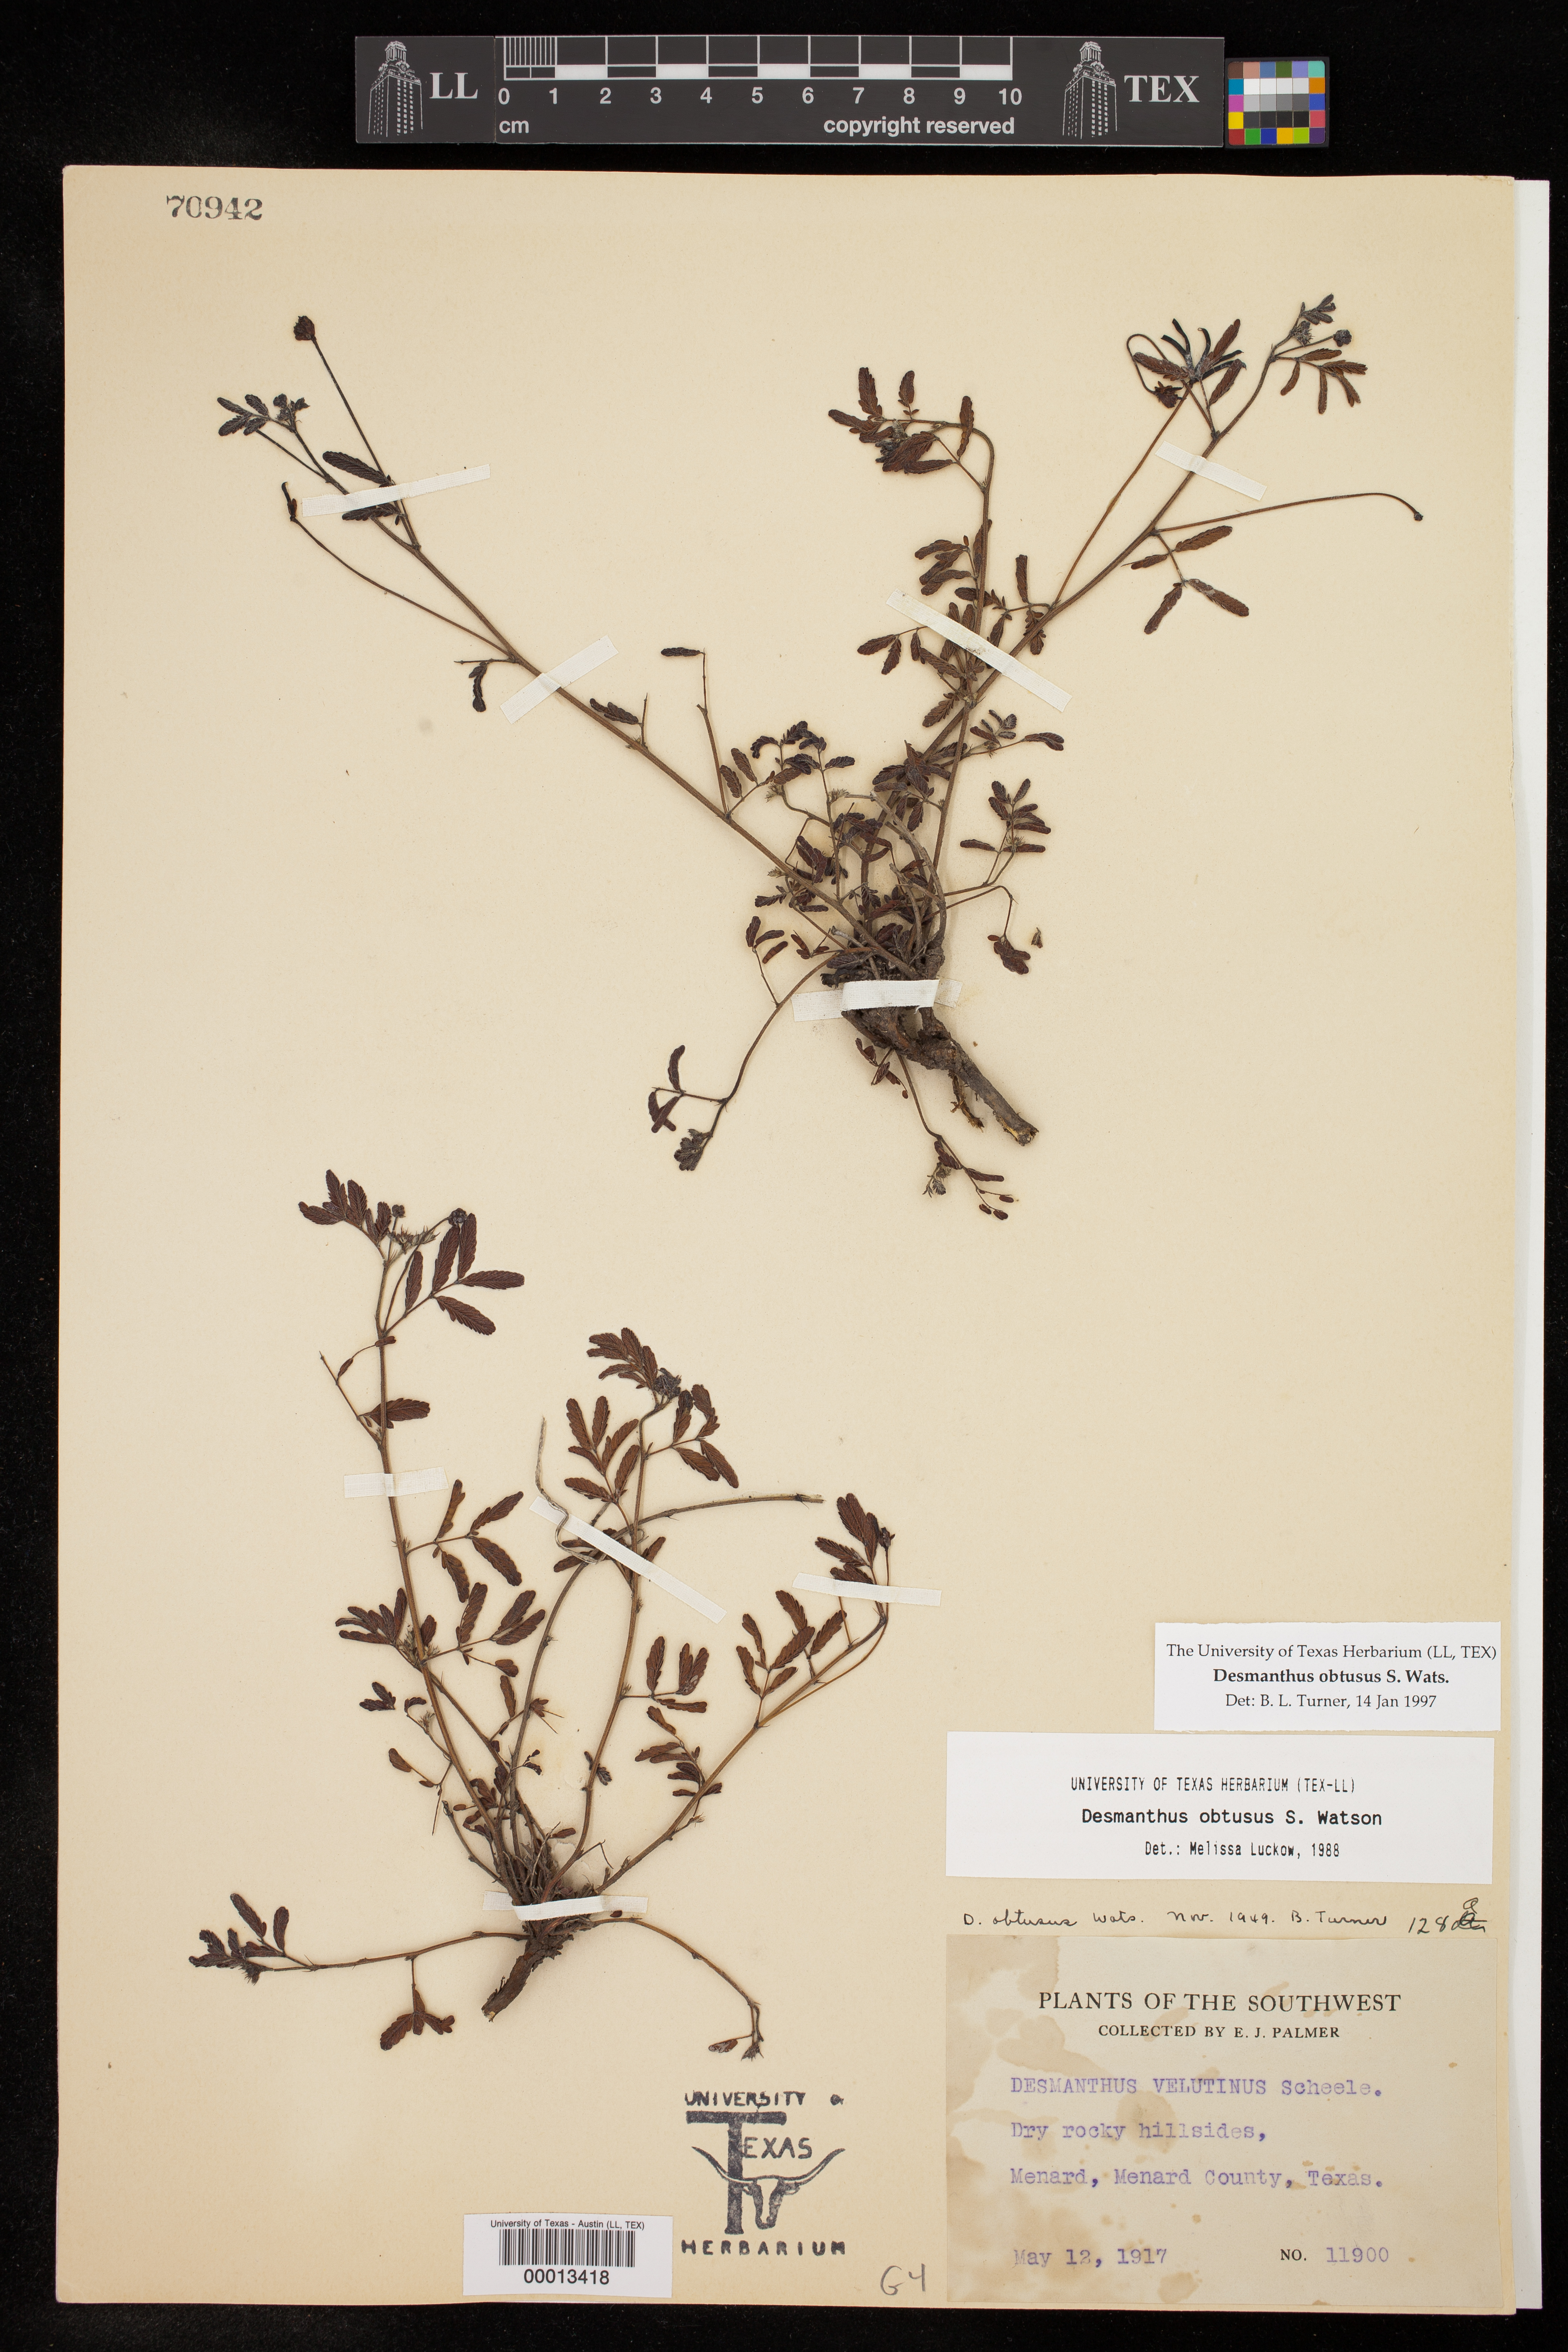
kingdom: Plantae
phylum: Tracheophyta
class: Magnoliopsida
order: Fabales
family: Fabaceae
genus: Desmanthus
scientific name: Desmanthus obtusus
